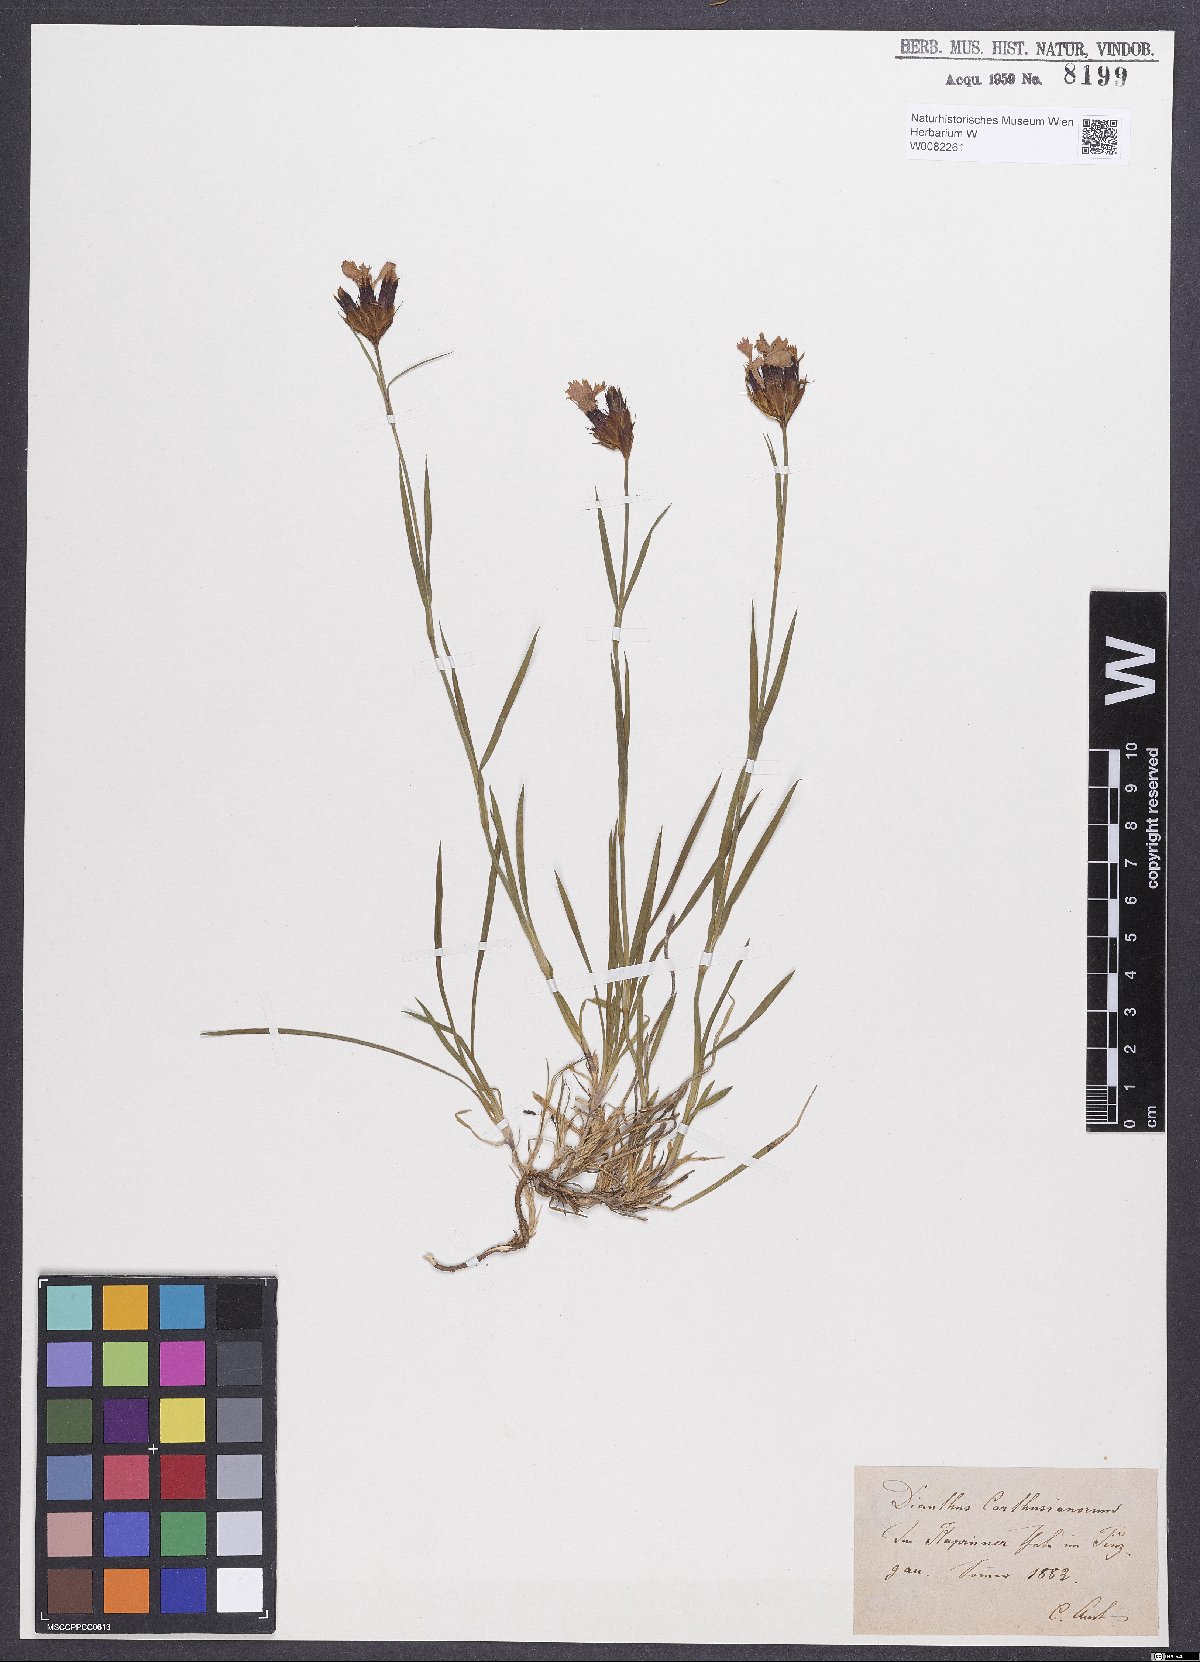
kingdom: Plantae
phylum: Tracheophyta
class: Magnoliopsida
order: Caryophyllales
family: Caryophyllaceae
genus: Dianthus
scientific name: Dianthus carthusianorum
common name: Carthusian pink
